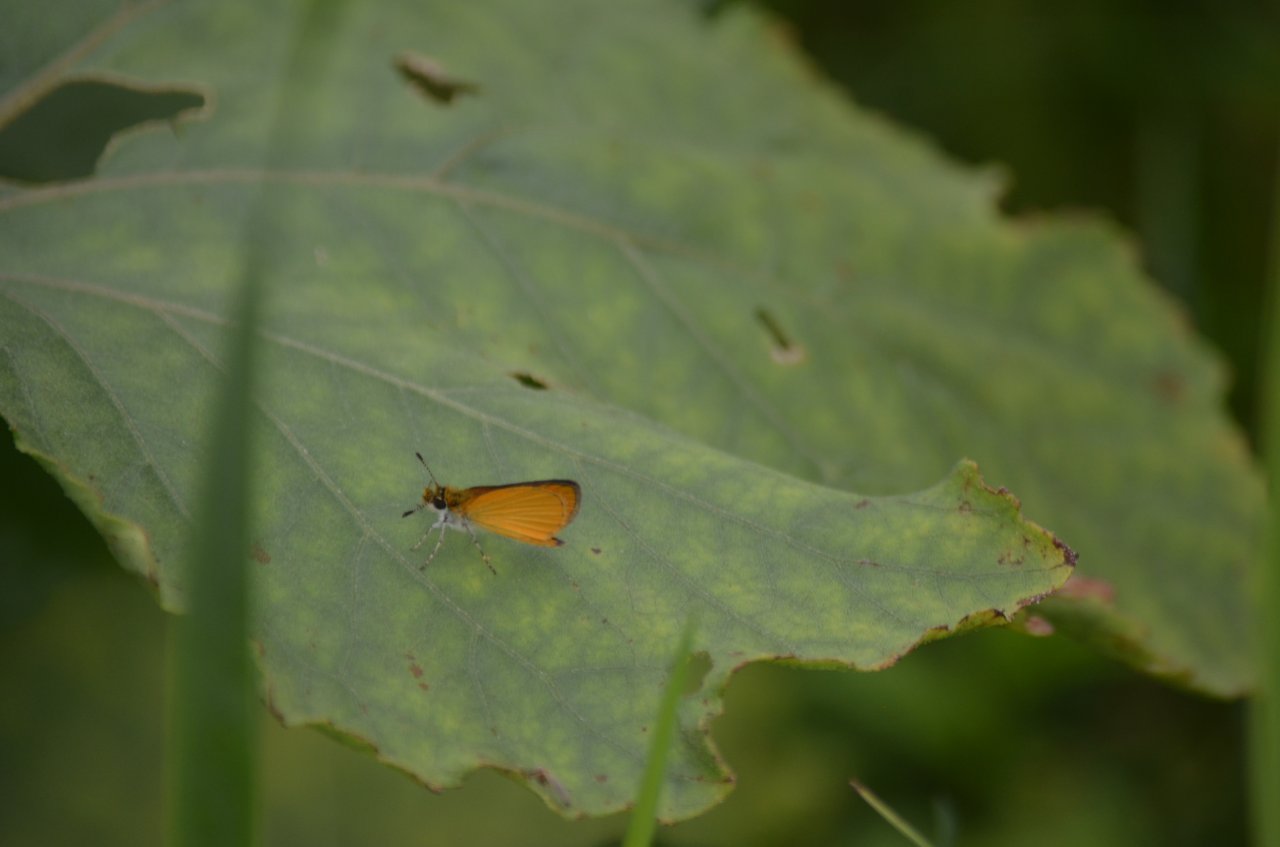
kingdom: Animalia
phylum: Arthropoda
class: Insecta
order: Lepidoptera
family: Hesperiidae
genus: Ancyloxypha
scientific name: Ancyloxypha numitor
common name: Least Skipper
